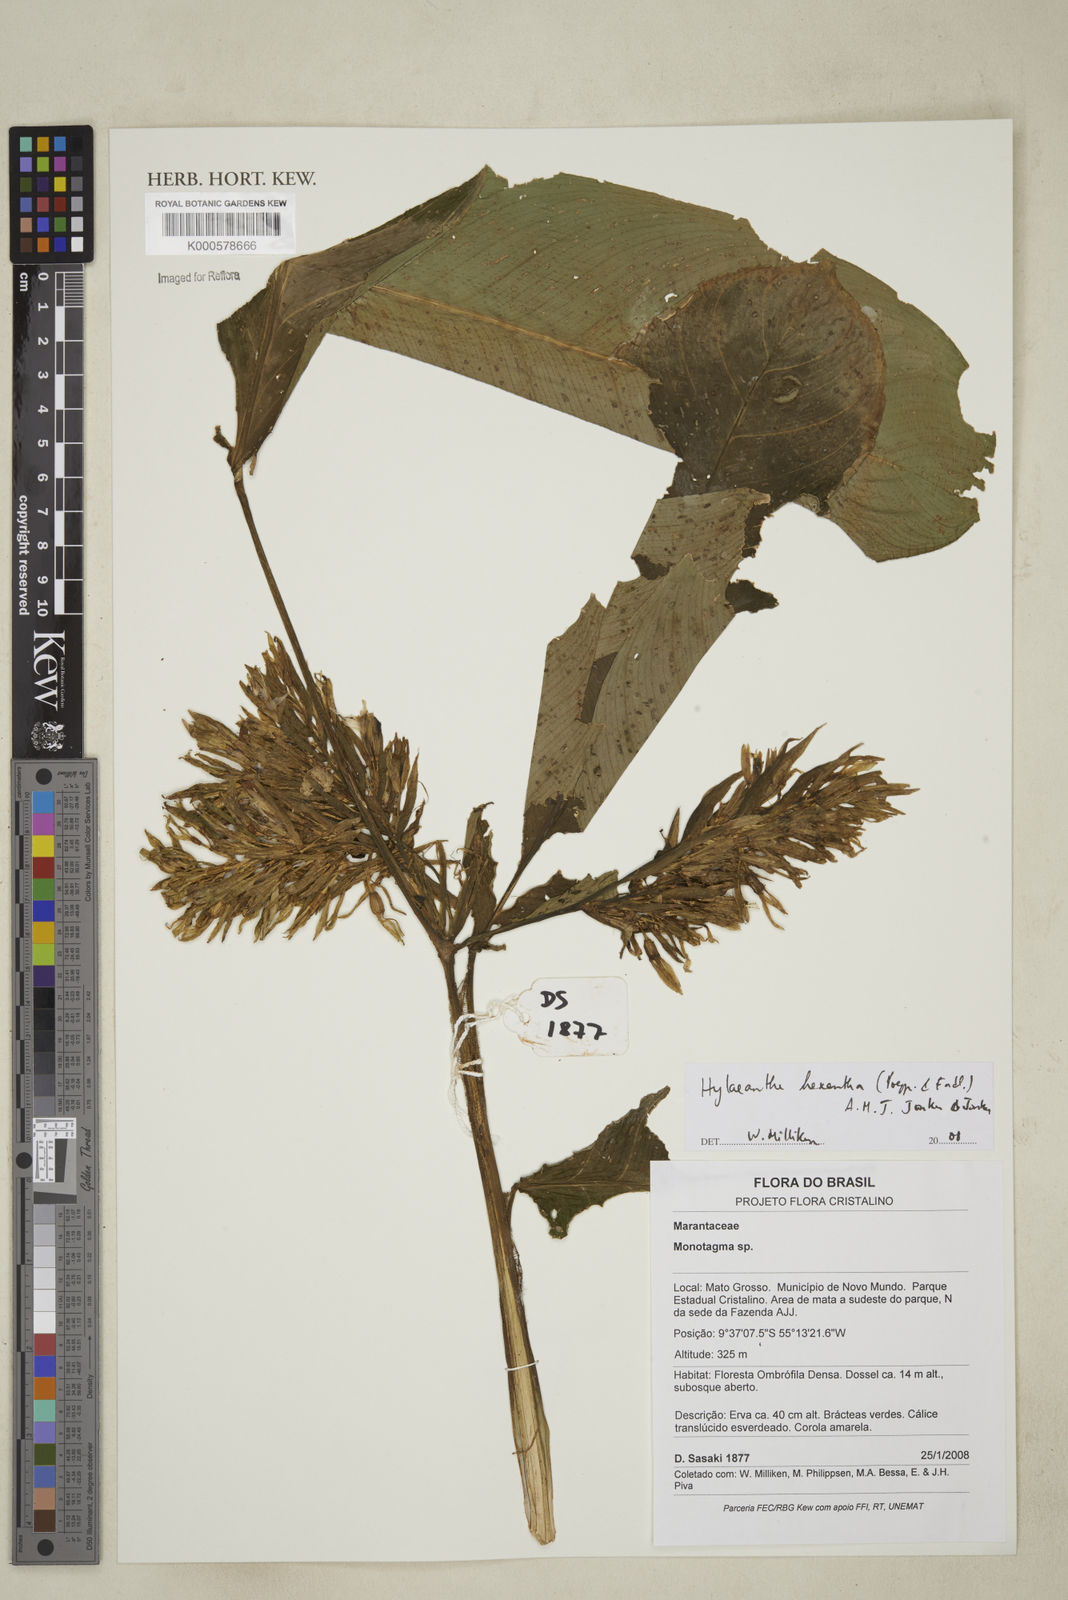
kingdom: Plantae
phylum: Tracheophyta
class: Liliopsida
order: Zingiberales
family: Marantaceae
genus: Hylaeanthe
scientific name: Hylaeanthe hexantha
